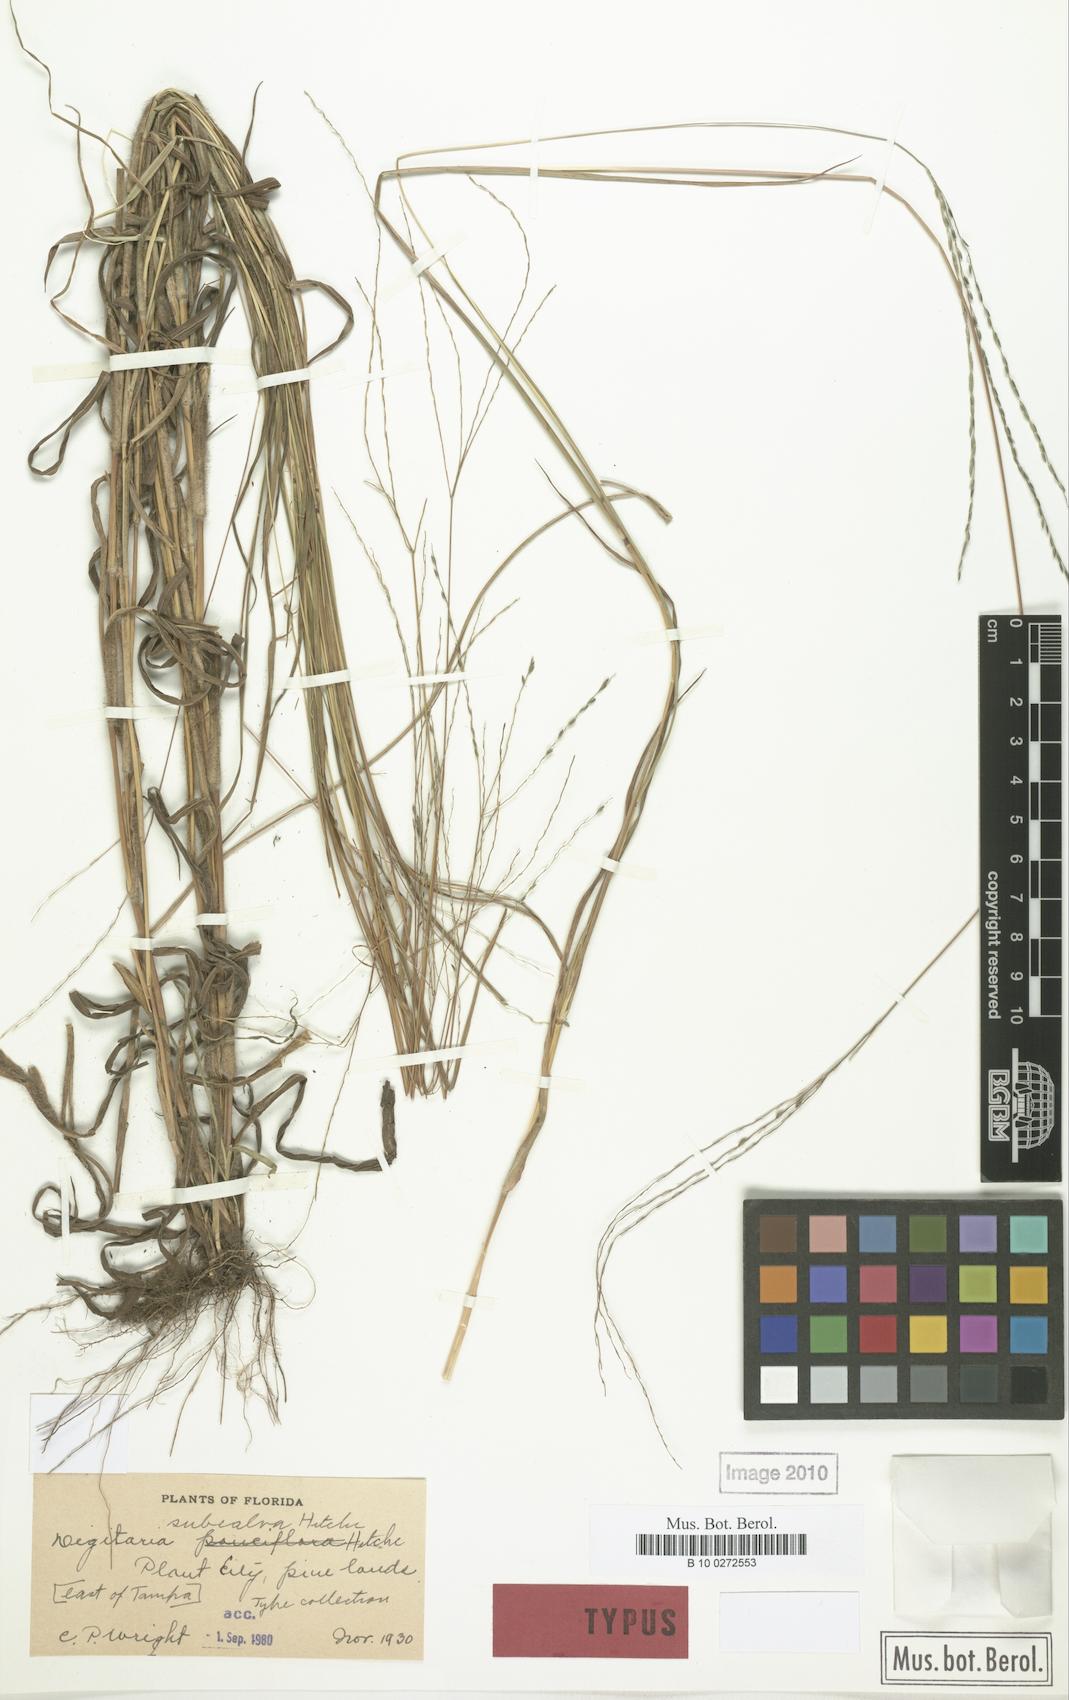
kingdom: Plantae
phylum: Tracheophyta
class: Liliopsida
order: Poales
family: Poaceae
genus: Digitaria
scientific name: Digitaria subcalva
